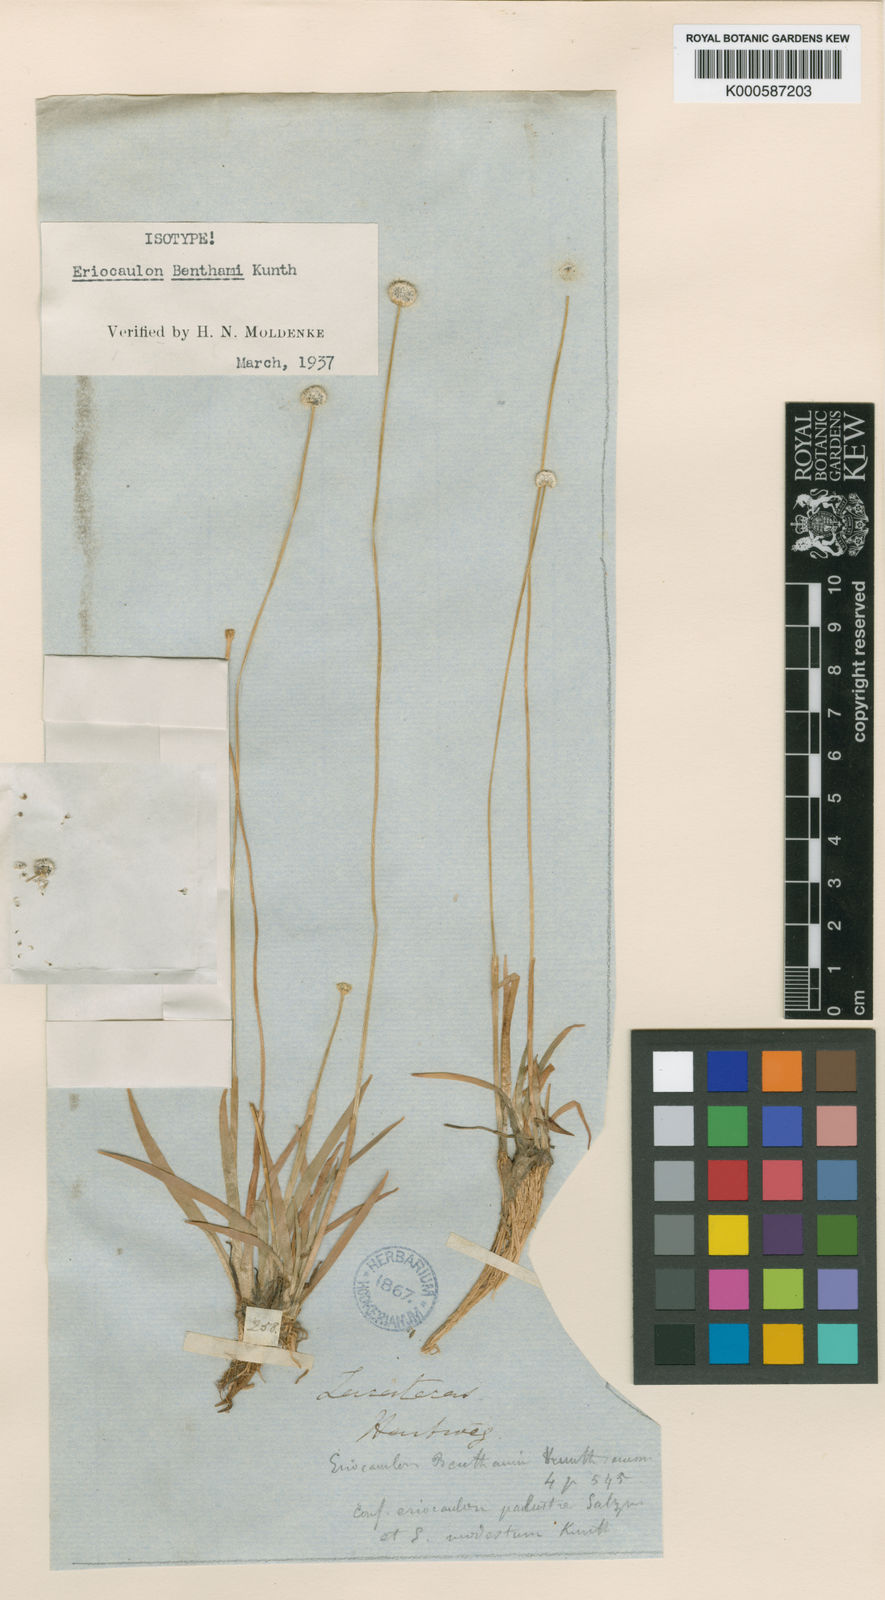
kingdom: Plantae
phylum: Tracheophyta
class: Liliopsida
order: Poales
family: Eriocaulaceae
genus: Eriocaulon
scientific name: Eriocaulon benthamii
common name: Bentham's pipewort
